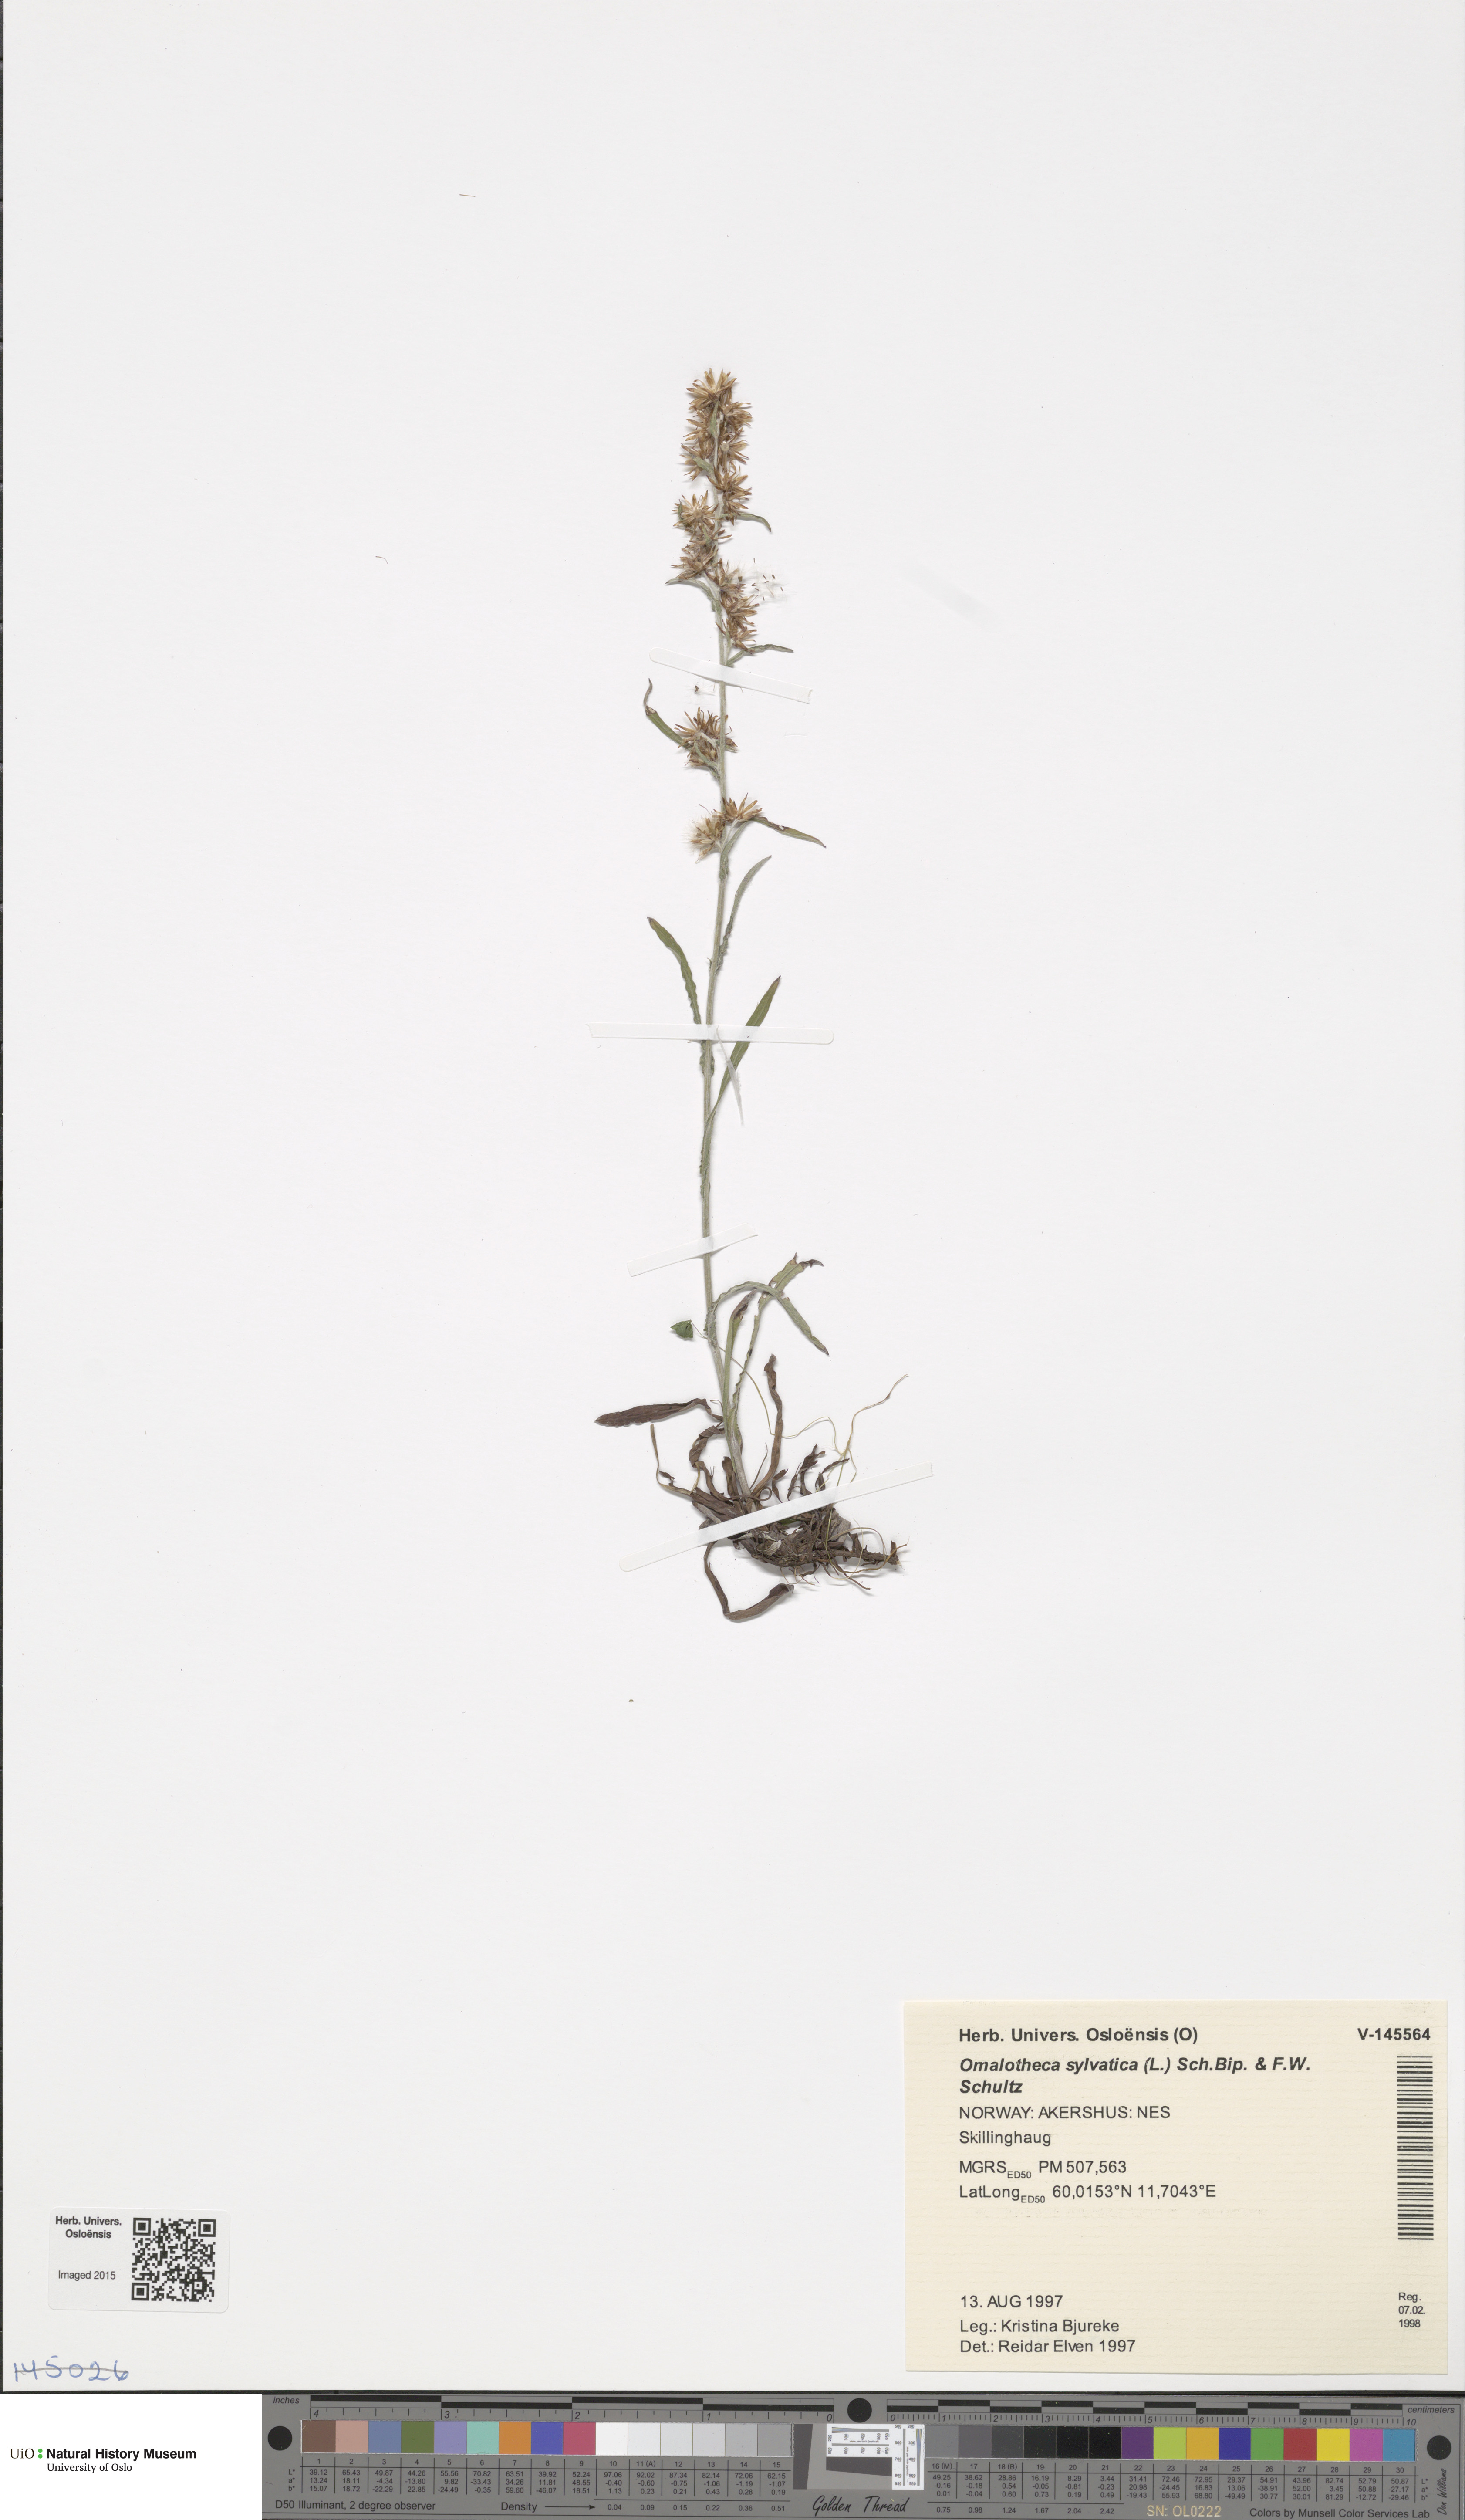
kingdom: Plantae
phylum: Tracheophyta
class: Magnoliopsida
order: Asterales
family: Asteraceae
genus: Omalotheca
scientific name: Omalotheca sylvatica
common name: Heath cudweed
